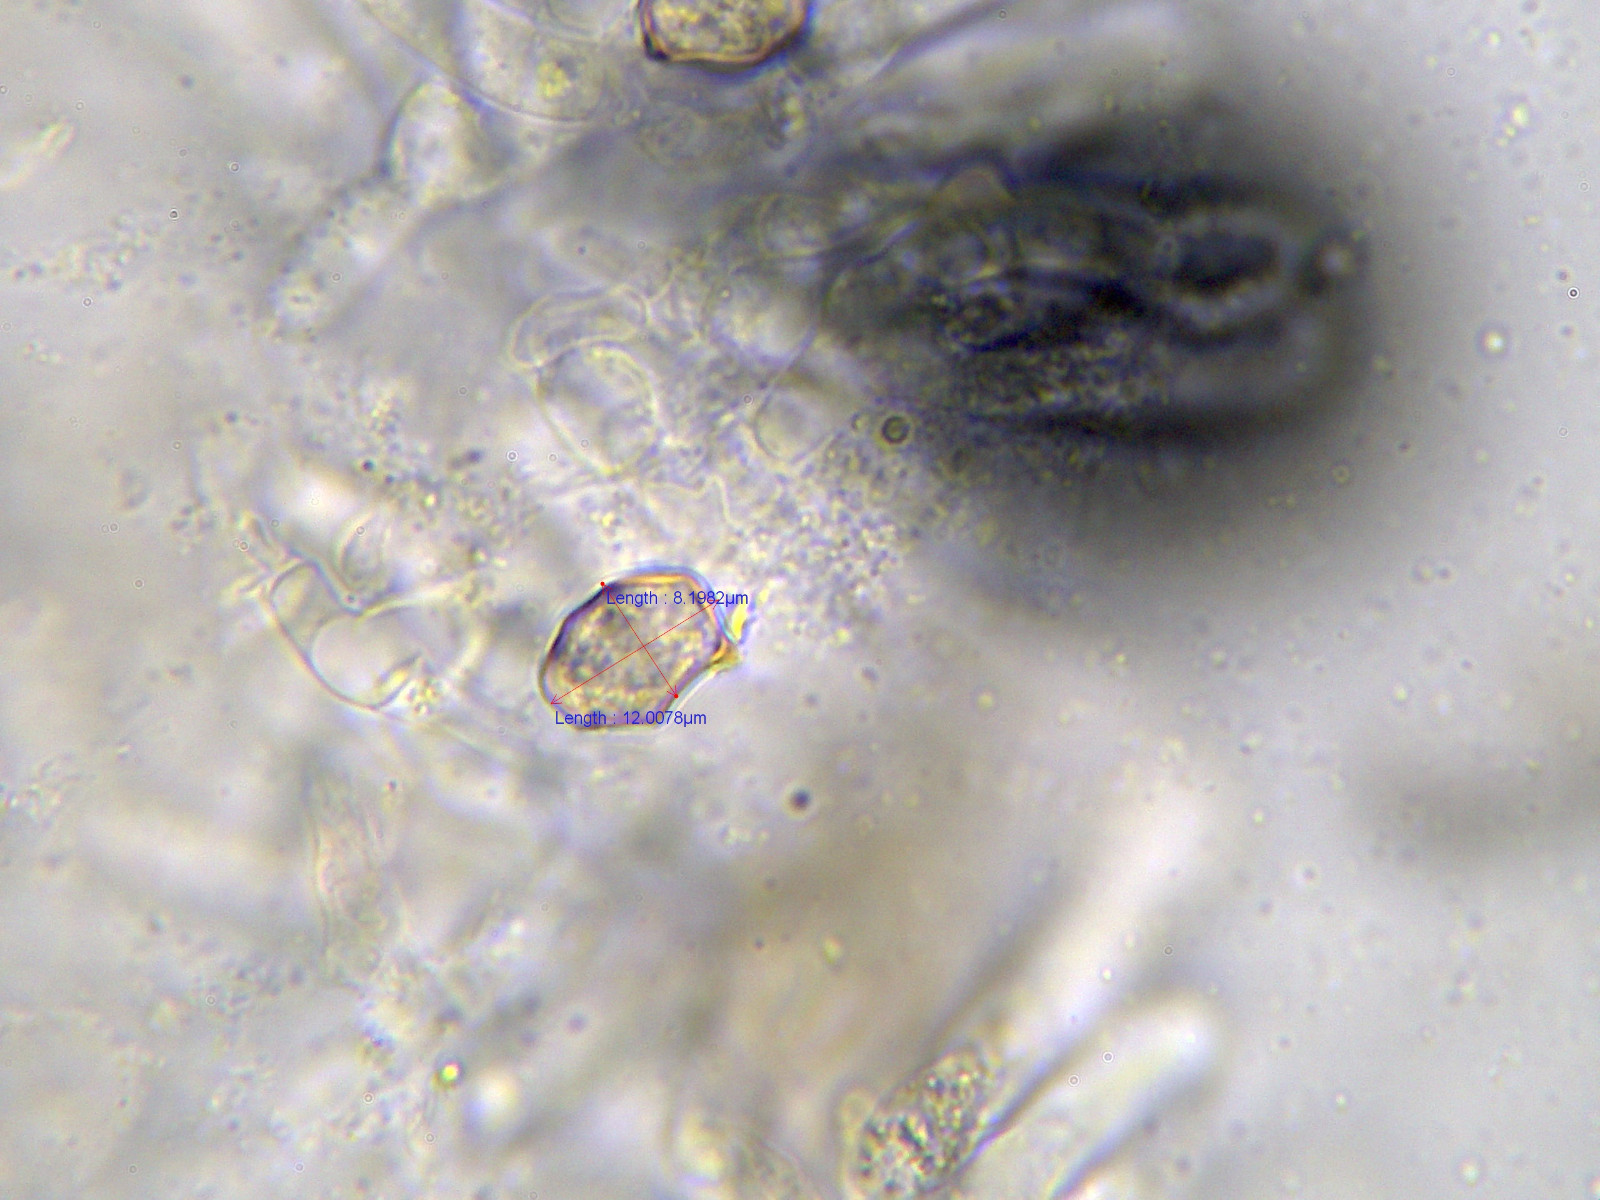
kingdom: Fungi
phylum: Basidiomycota
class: Agaricomycetes
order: Agaricales
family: Entolomataceae
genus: Entoloma
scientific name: Entoloma cetratum
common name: voks-rødblad
